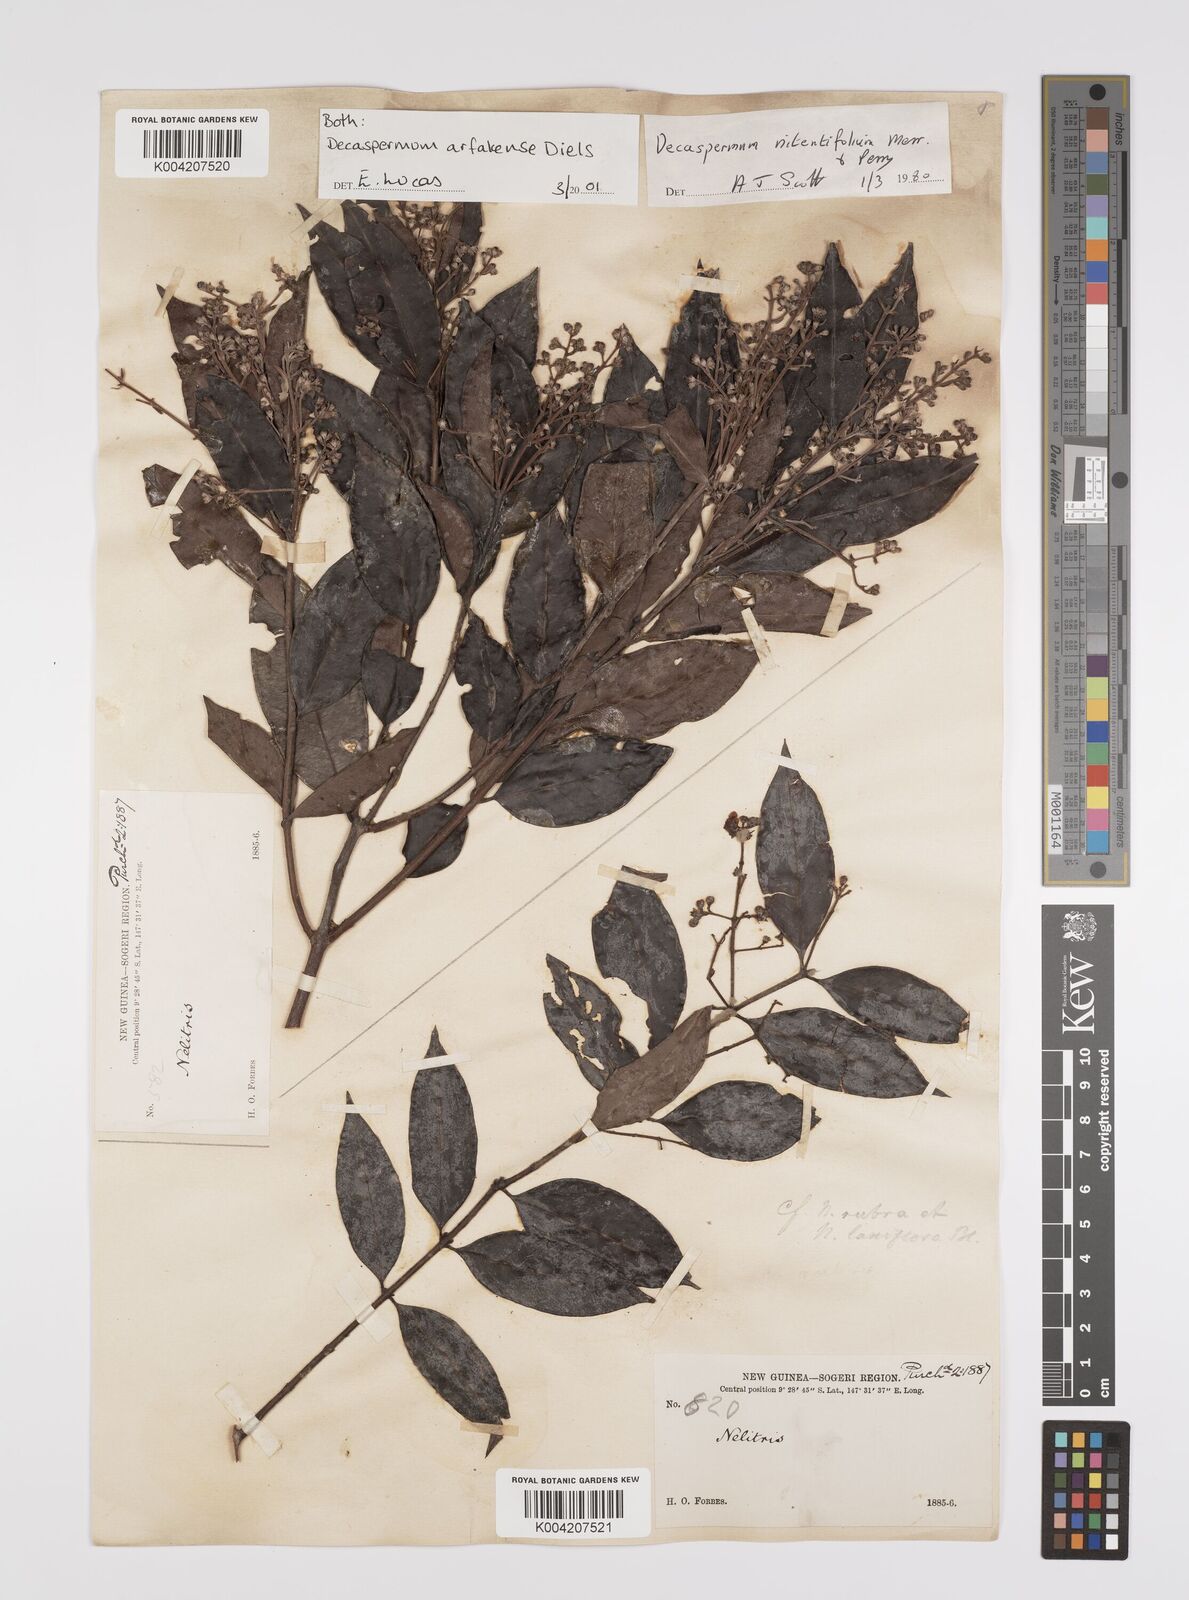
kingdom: Plantae
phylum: Tracheophyta
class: Magnoliopsida
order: Myrtales
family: Myrtaceae
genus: Decaspermum
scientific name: Decaspermum arfakense
